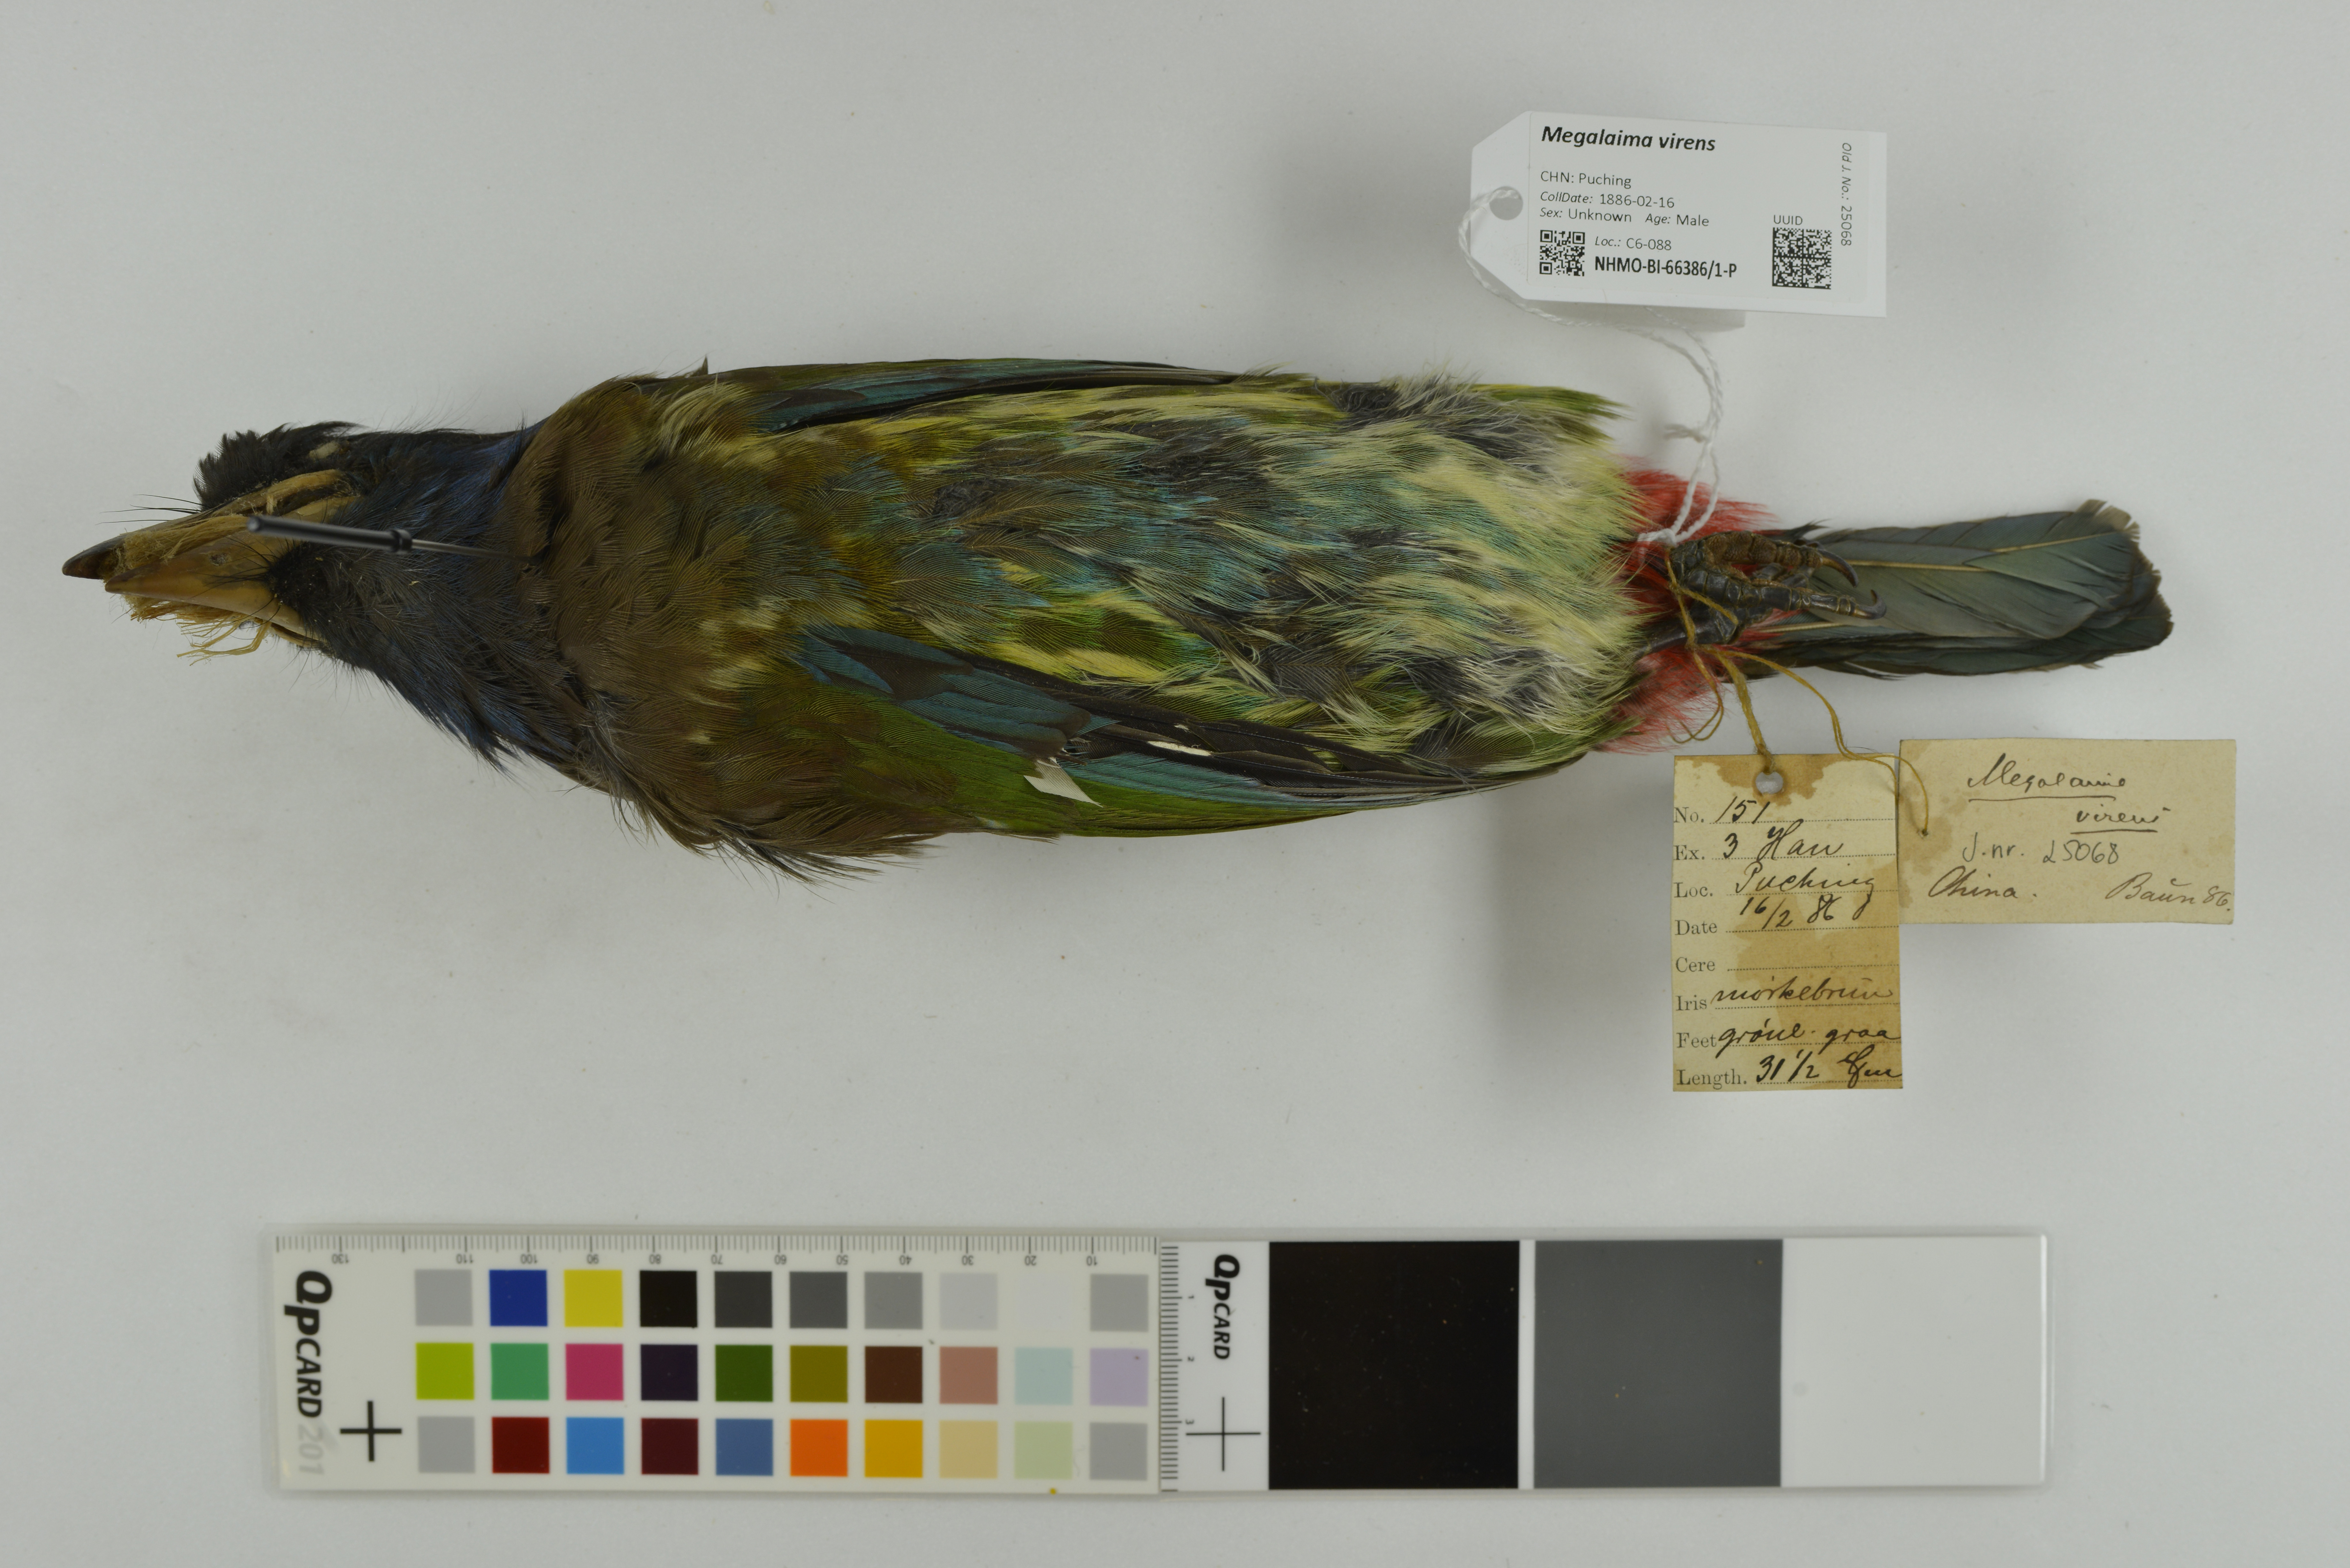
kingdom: Animalia
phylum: Chordata
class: Aves
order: Piciformes
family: Megalaimidae
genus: Psilopogon
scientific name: Psilopogon virens
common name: Great barbet
